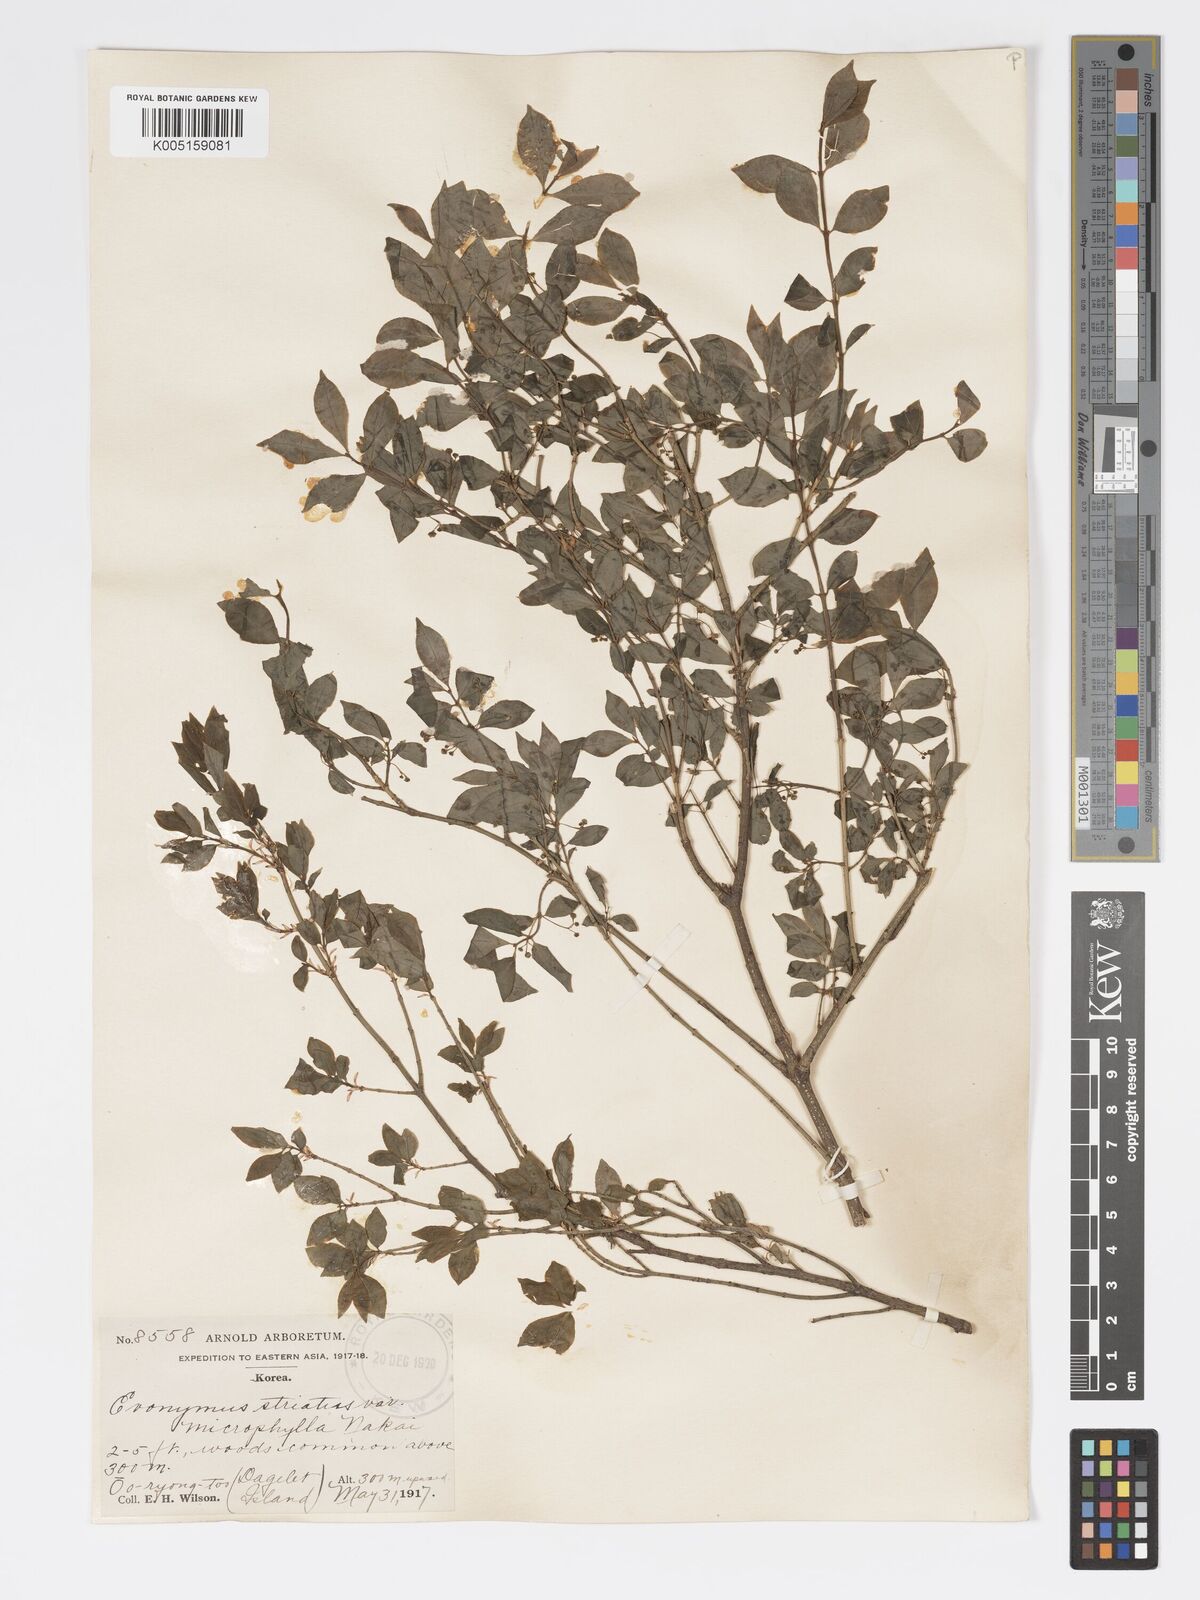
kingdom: Plantae
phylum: Tracheophyta
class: Magnoliopsida
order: Celastrales
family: Celastraceae
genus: Euonymus
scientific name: Euonymus
